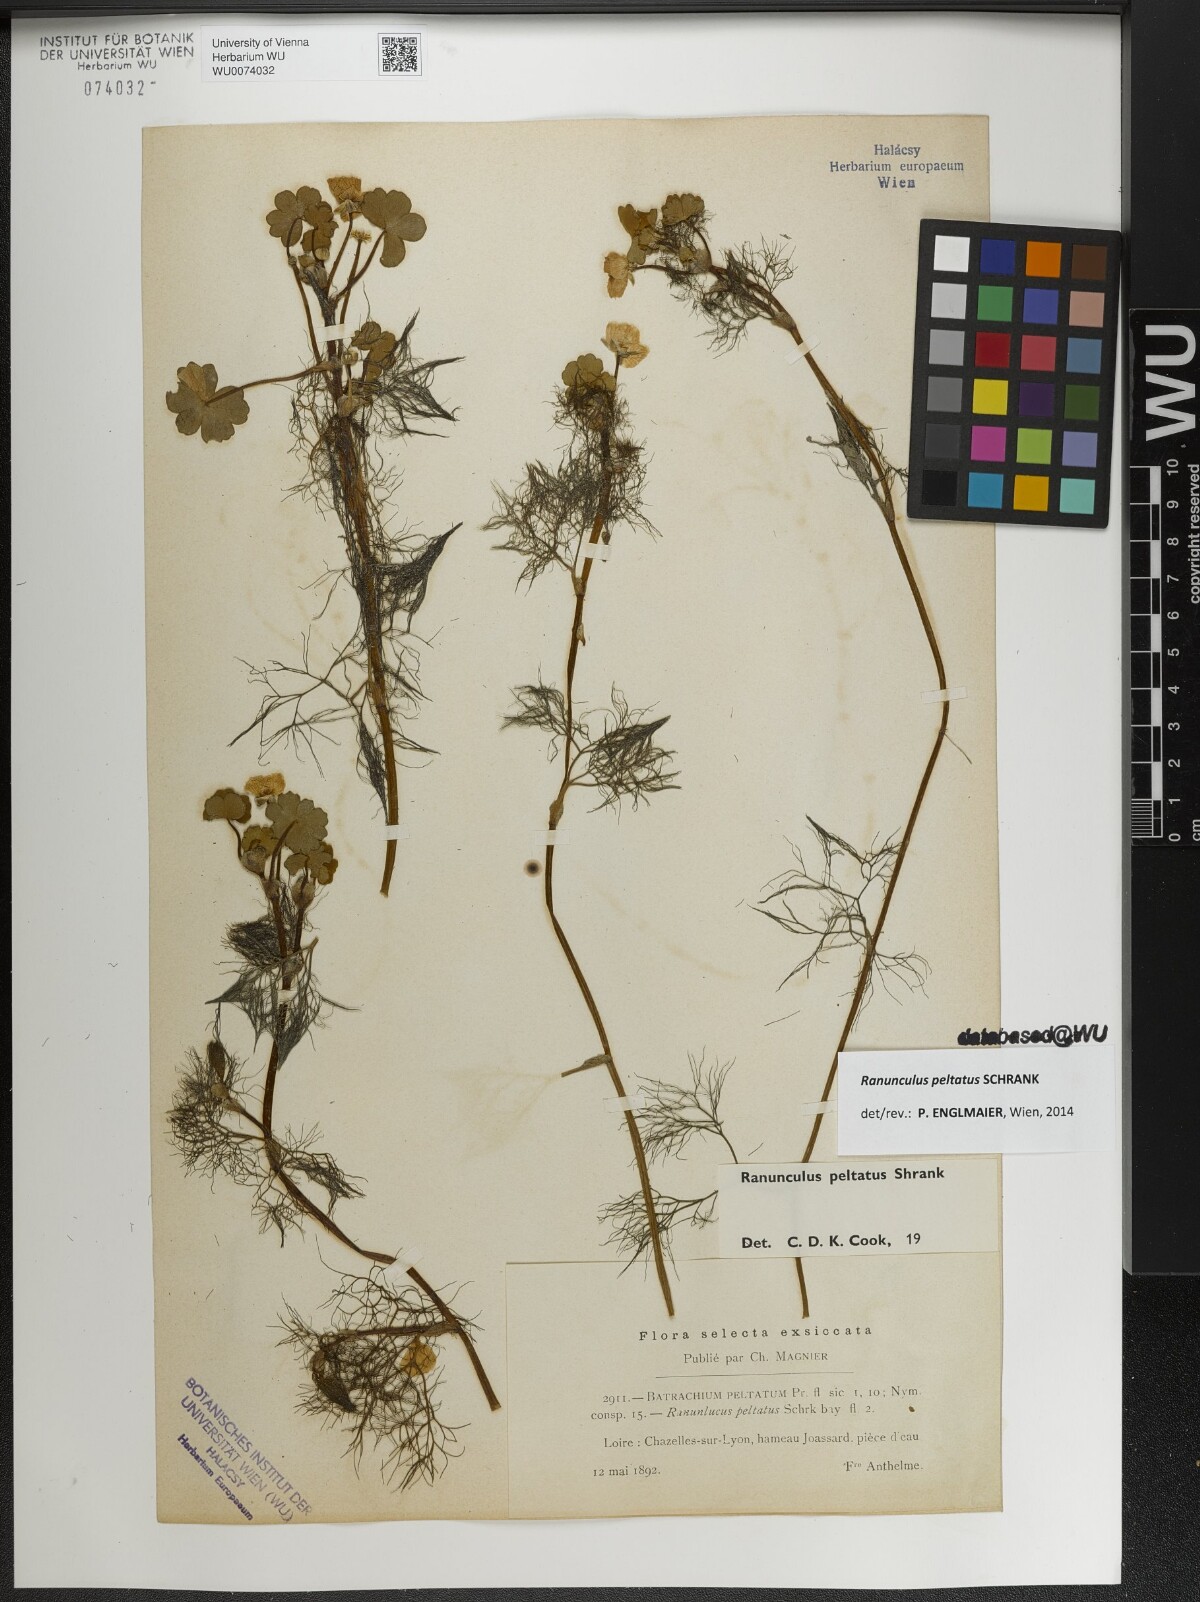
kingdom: Plantae
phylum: Tracheophyta
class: Magnoliopsida
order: Ranunculales
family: Ranunculaceae
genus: Ranunculus
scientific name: Ranunculus peltatus
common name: Pond water-crowfoot
